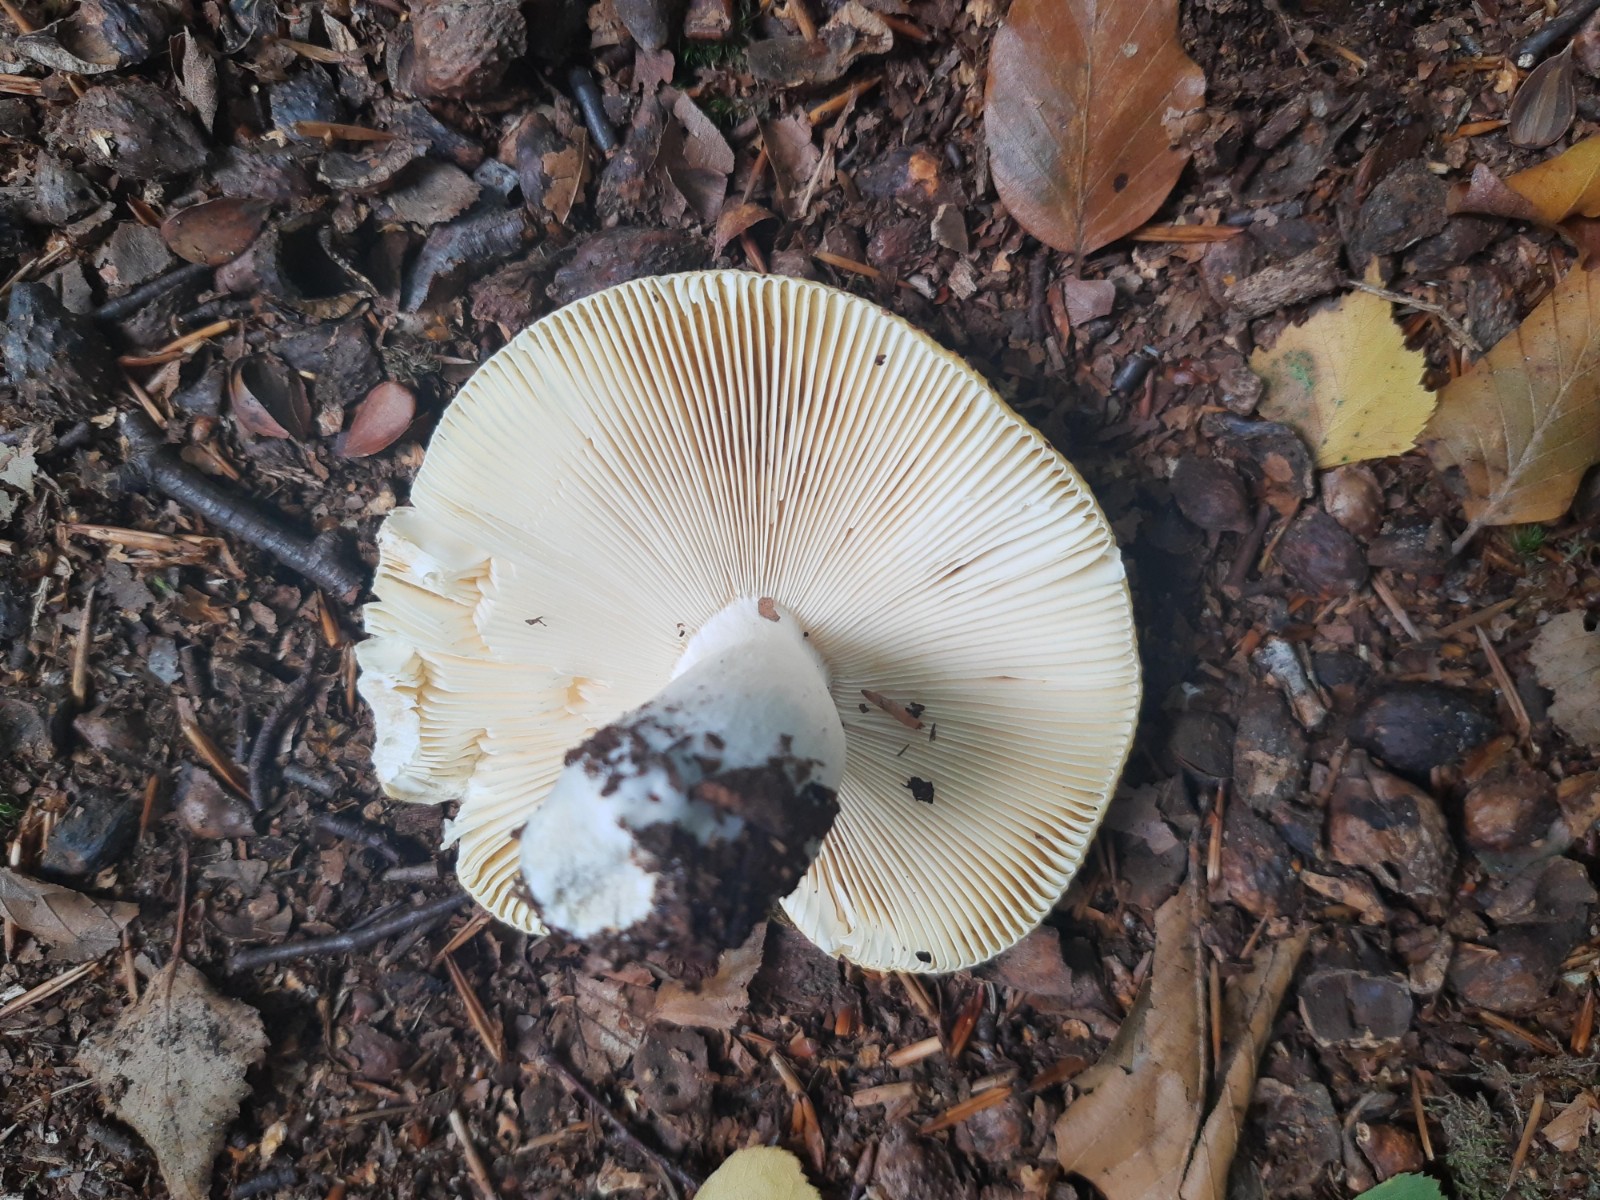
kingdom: Fungi
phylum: Basidiomycota
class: Agaricomycetes
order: Russulales
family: Russulaceae
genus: Russula
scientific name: Russula claroflava
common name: birke-skørhat
